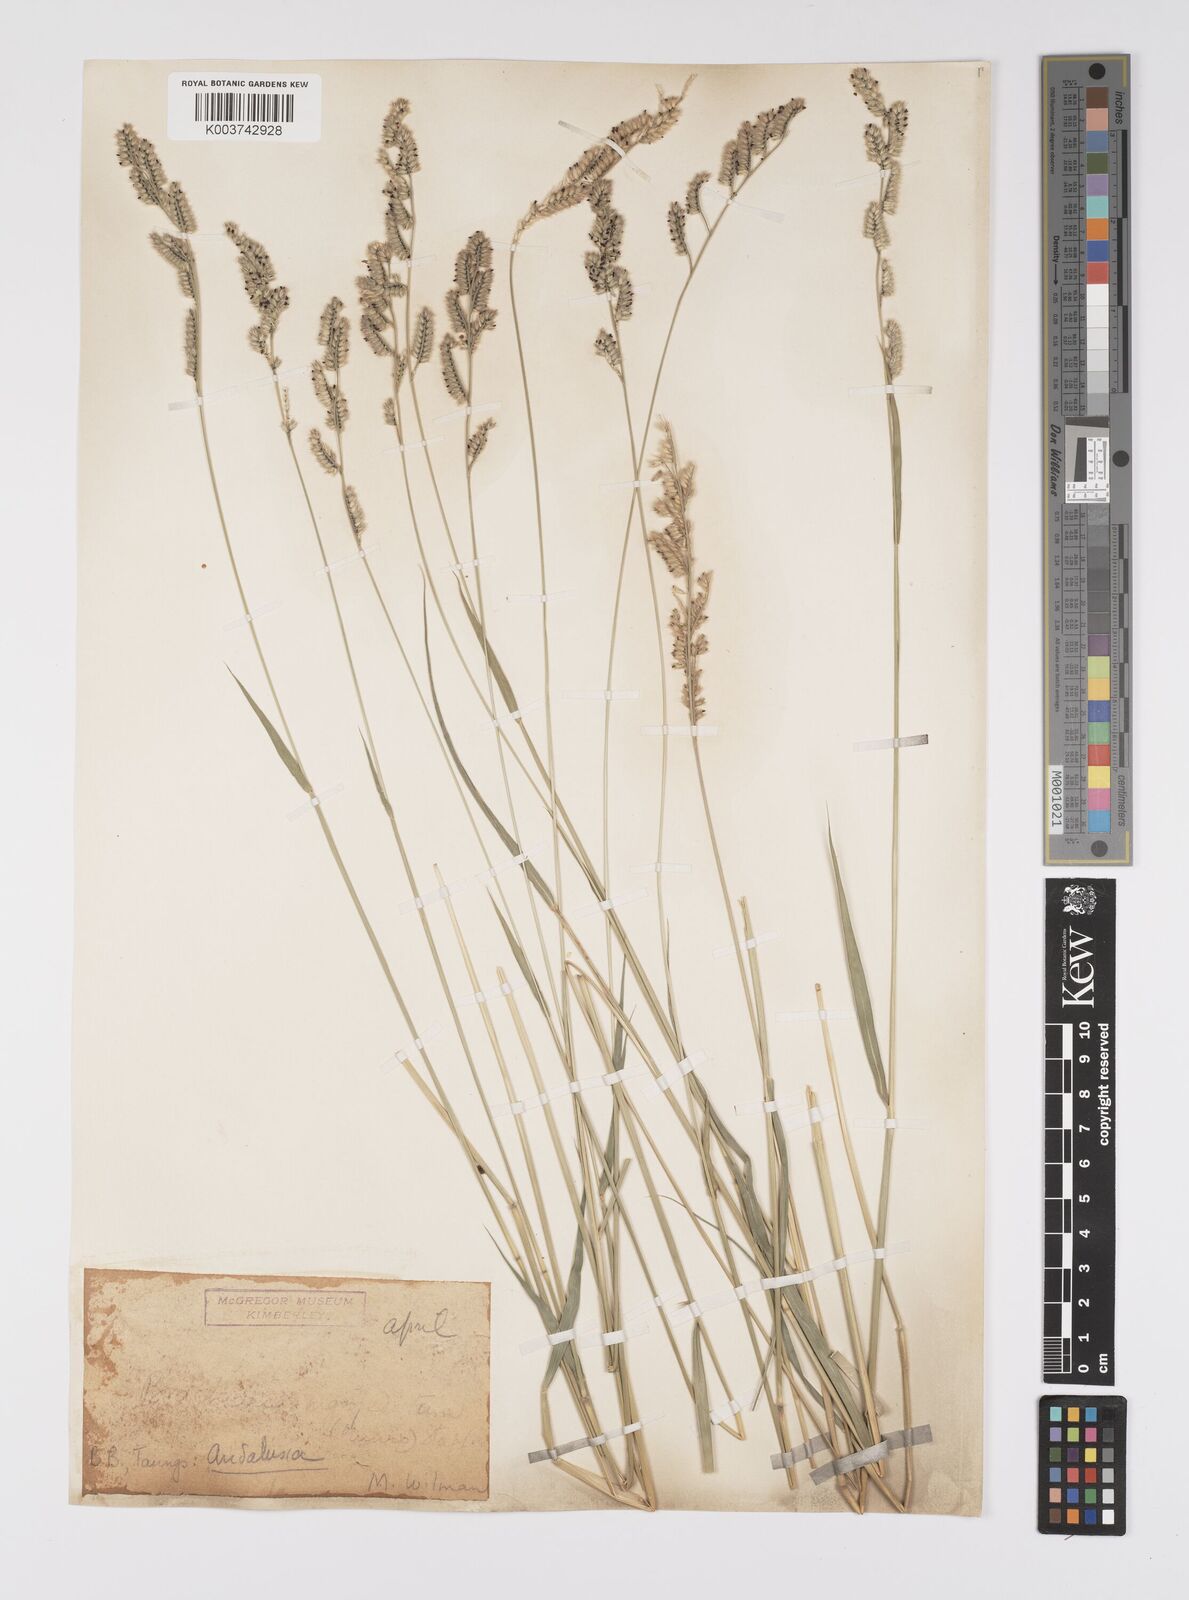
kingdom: Plantae
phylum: Tracheophyta
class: Liliopsida
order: Poales
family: Poaceae
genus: Urochloa
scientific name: Urochloa nigropedata
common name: Spotted signal grass
